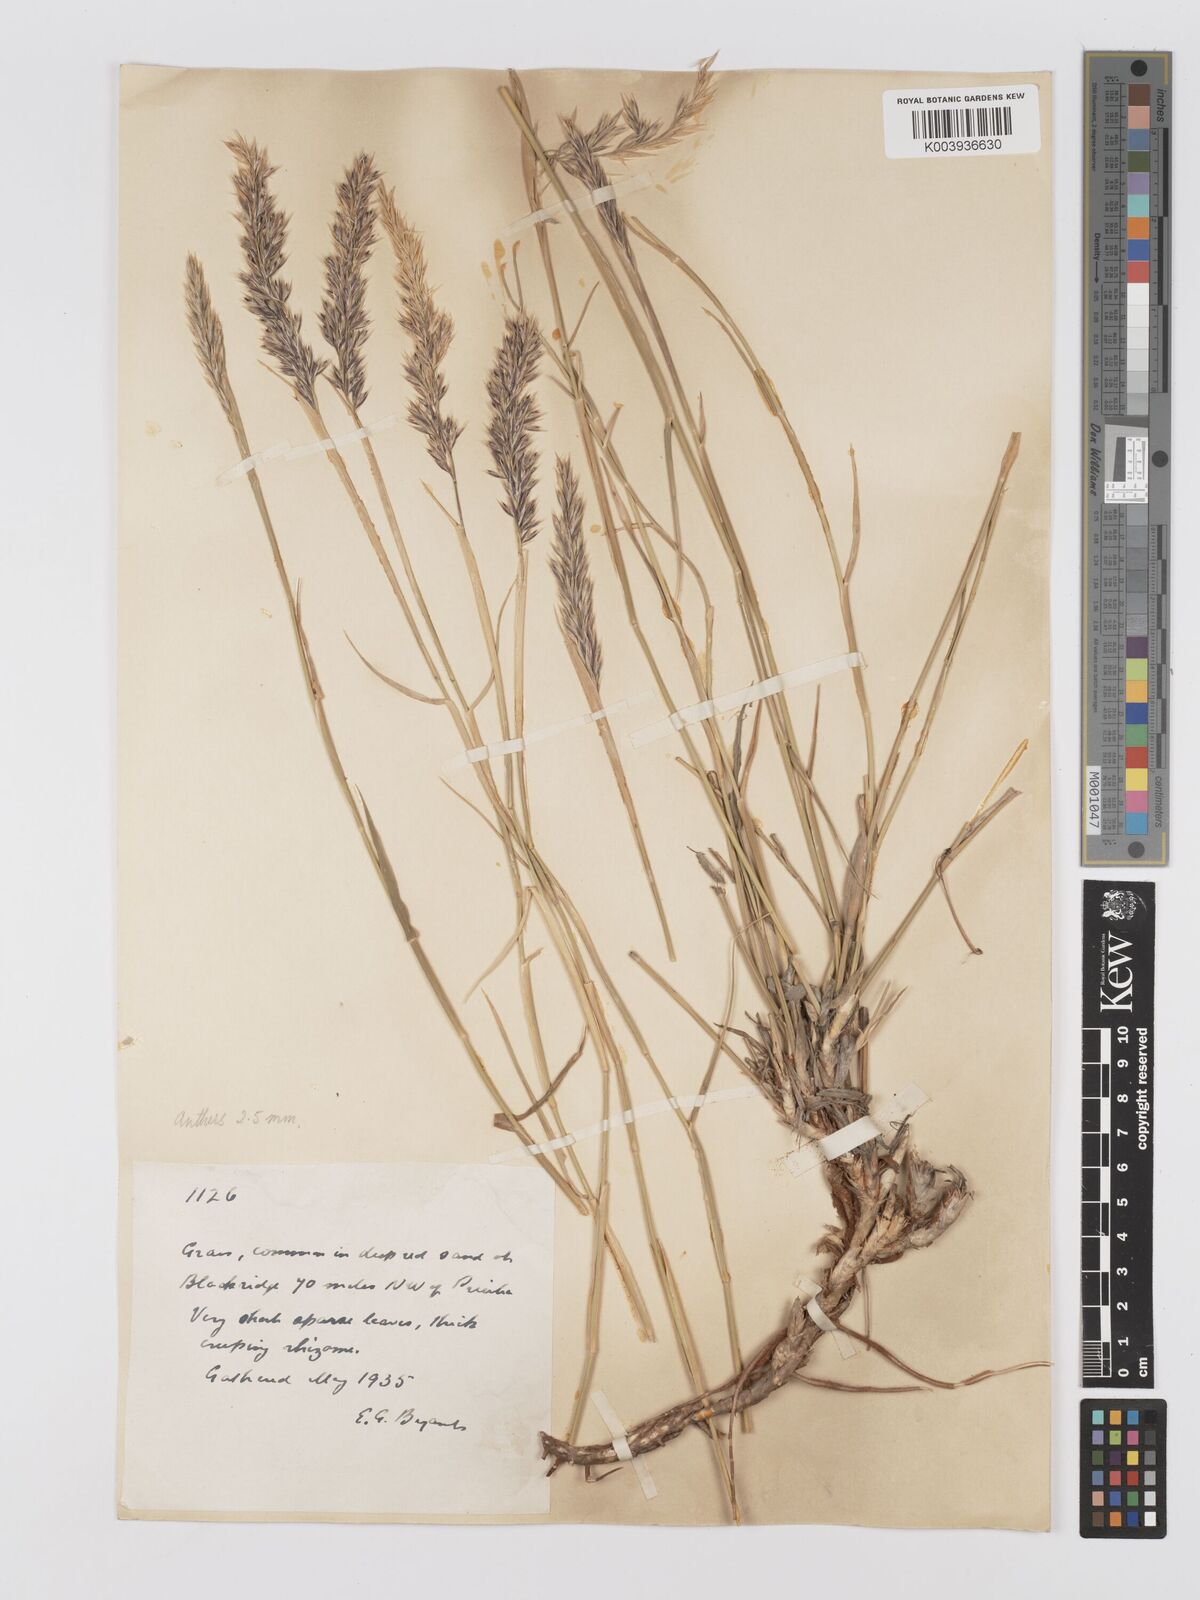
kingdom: Plantae
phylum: Tracheophyta
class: Liliopsida
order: Poales
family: Poaceae
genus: Centropodia
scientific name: Centropodia glauca
